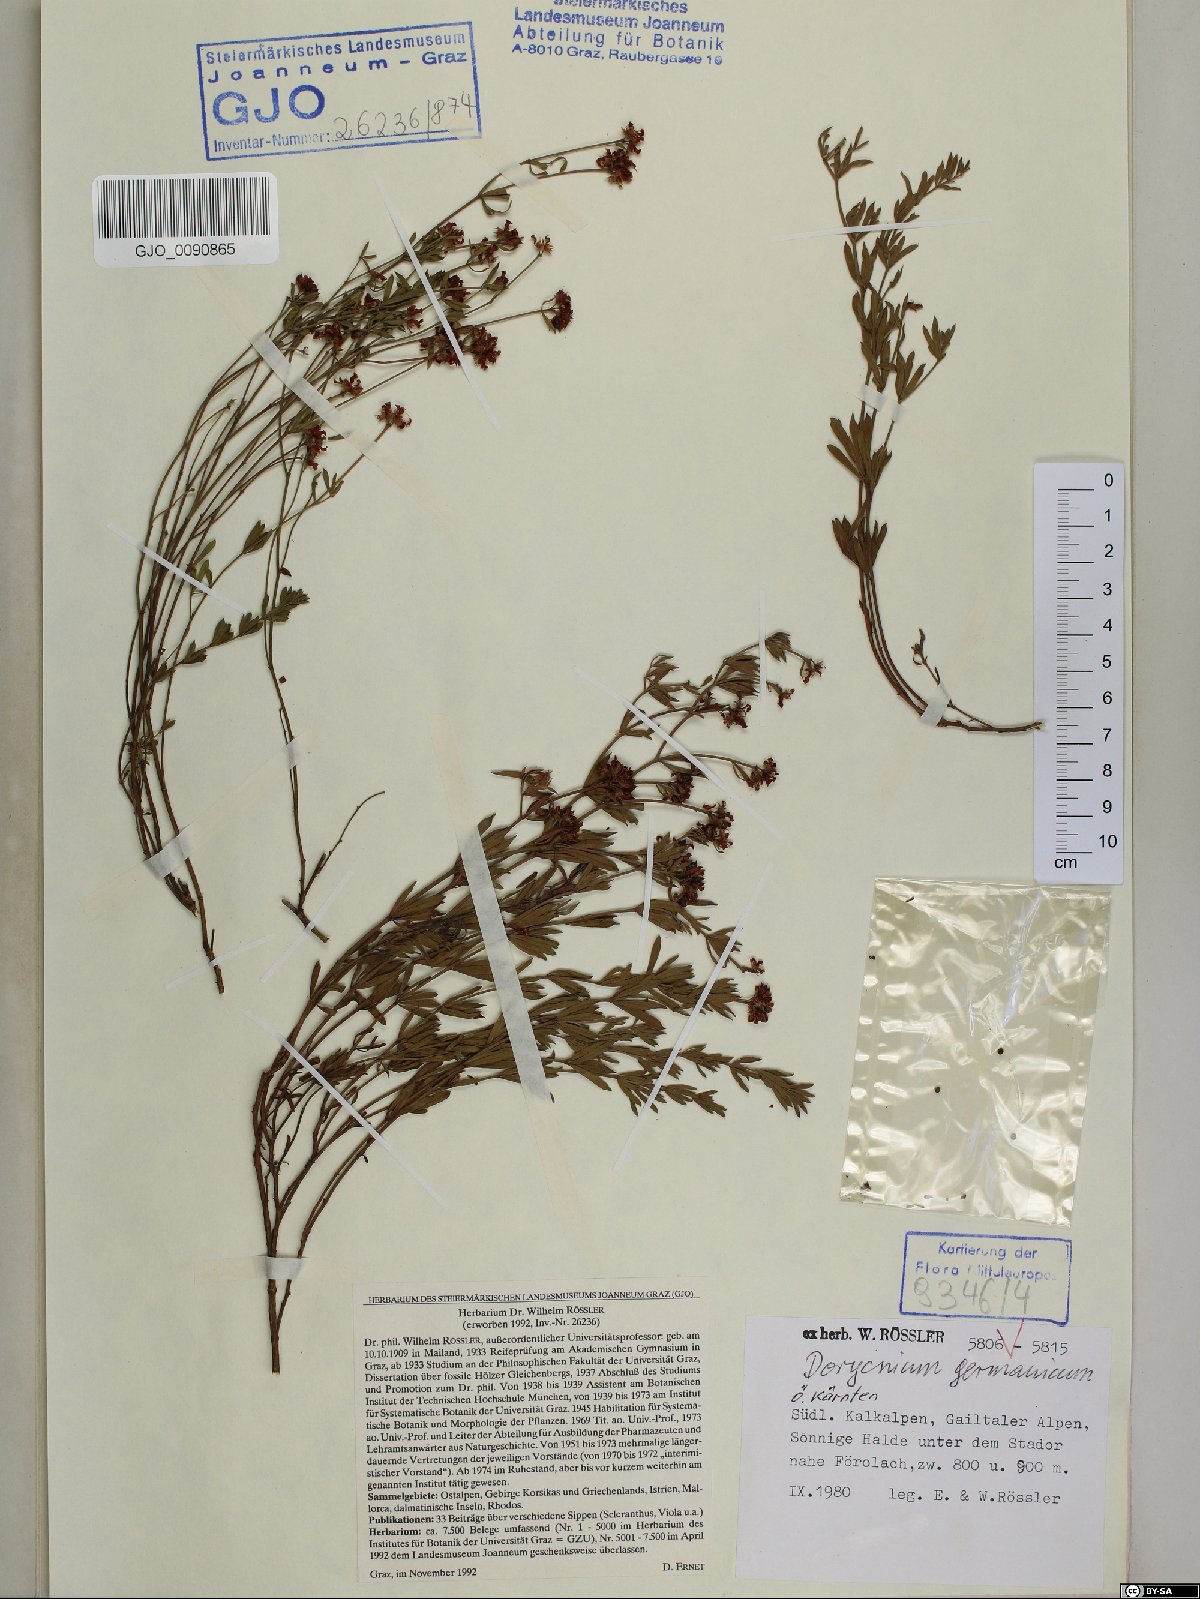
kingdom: Plantae
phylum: Tracheophyta
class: Magnoliopsida
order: Fabales
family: Fabaceae
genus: Lotus
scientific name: Lotus germanicus
